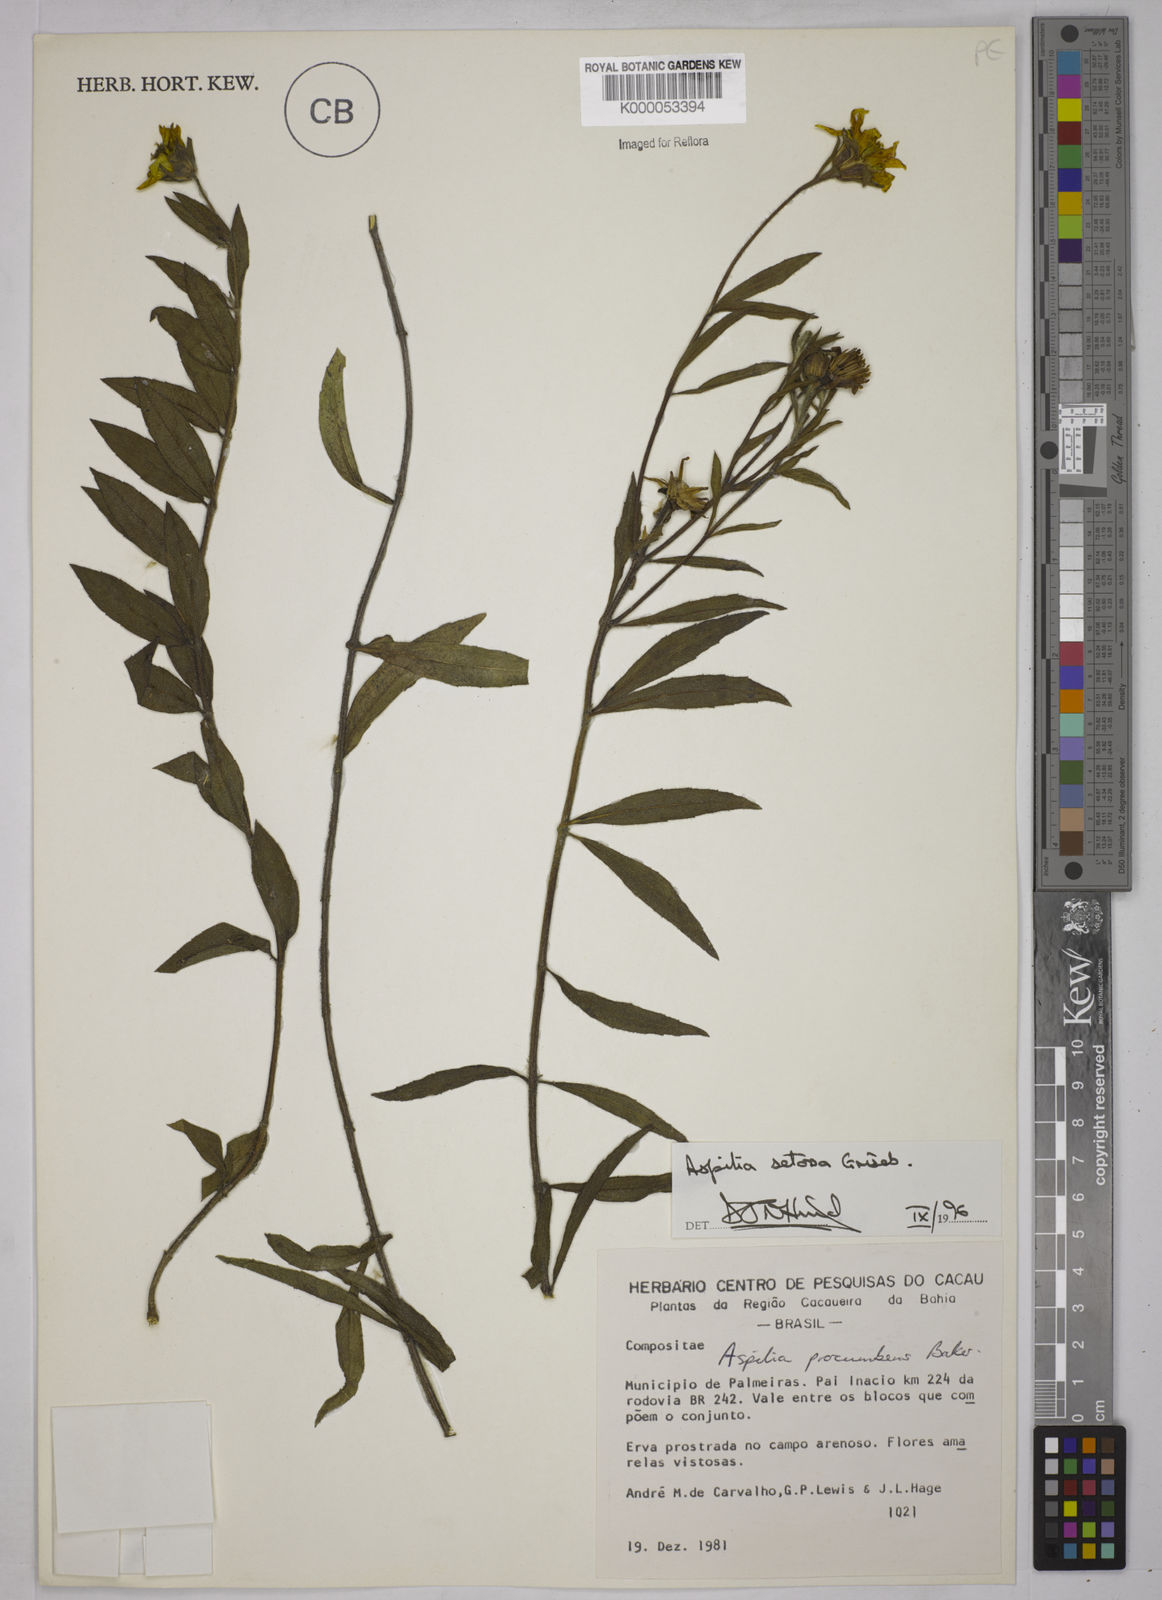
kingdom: Plantae
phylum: Tracheophyta
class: Magnoliopsida
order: Asterales
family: Asteraceae
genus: Wedelia
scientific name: Wedelia montevidensis
